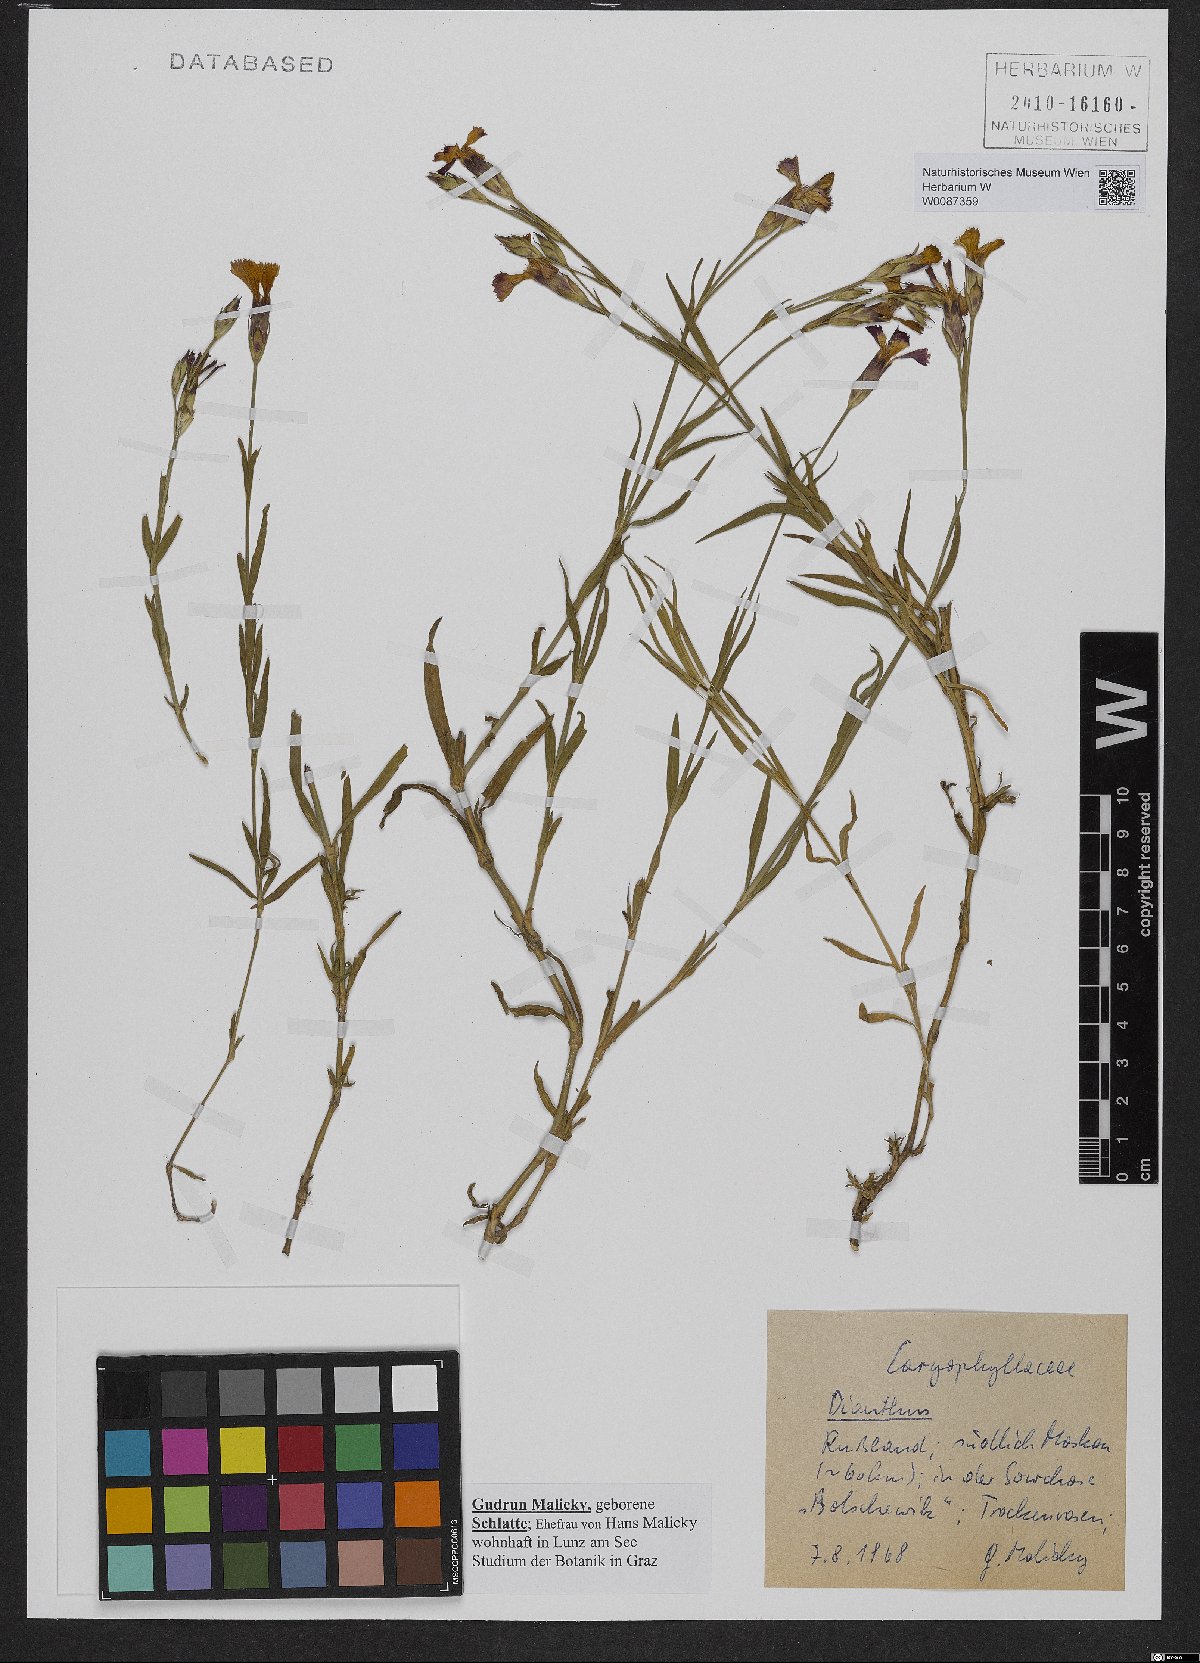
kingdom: Plantae
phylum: Tracheophyta
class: Magnoliopsida
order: Caryophyllales
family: Caryophyllaceae
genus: Dianthus
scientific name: Dianthus
